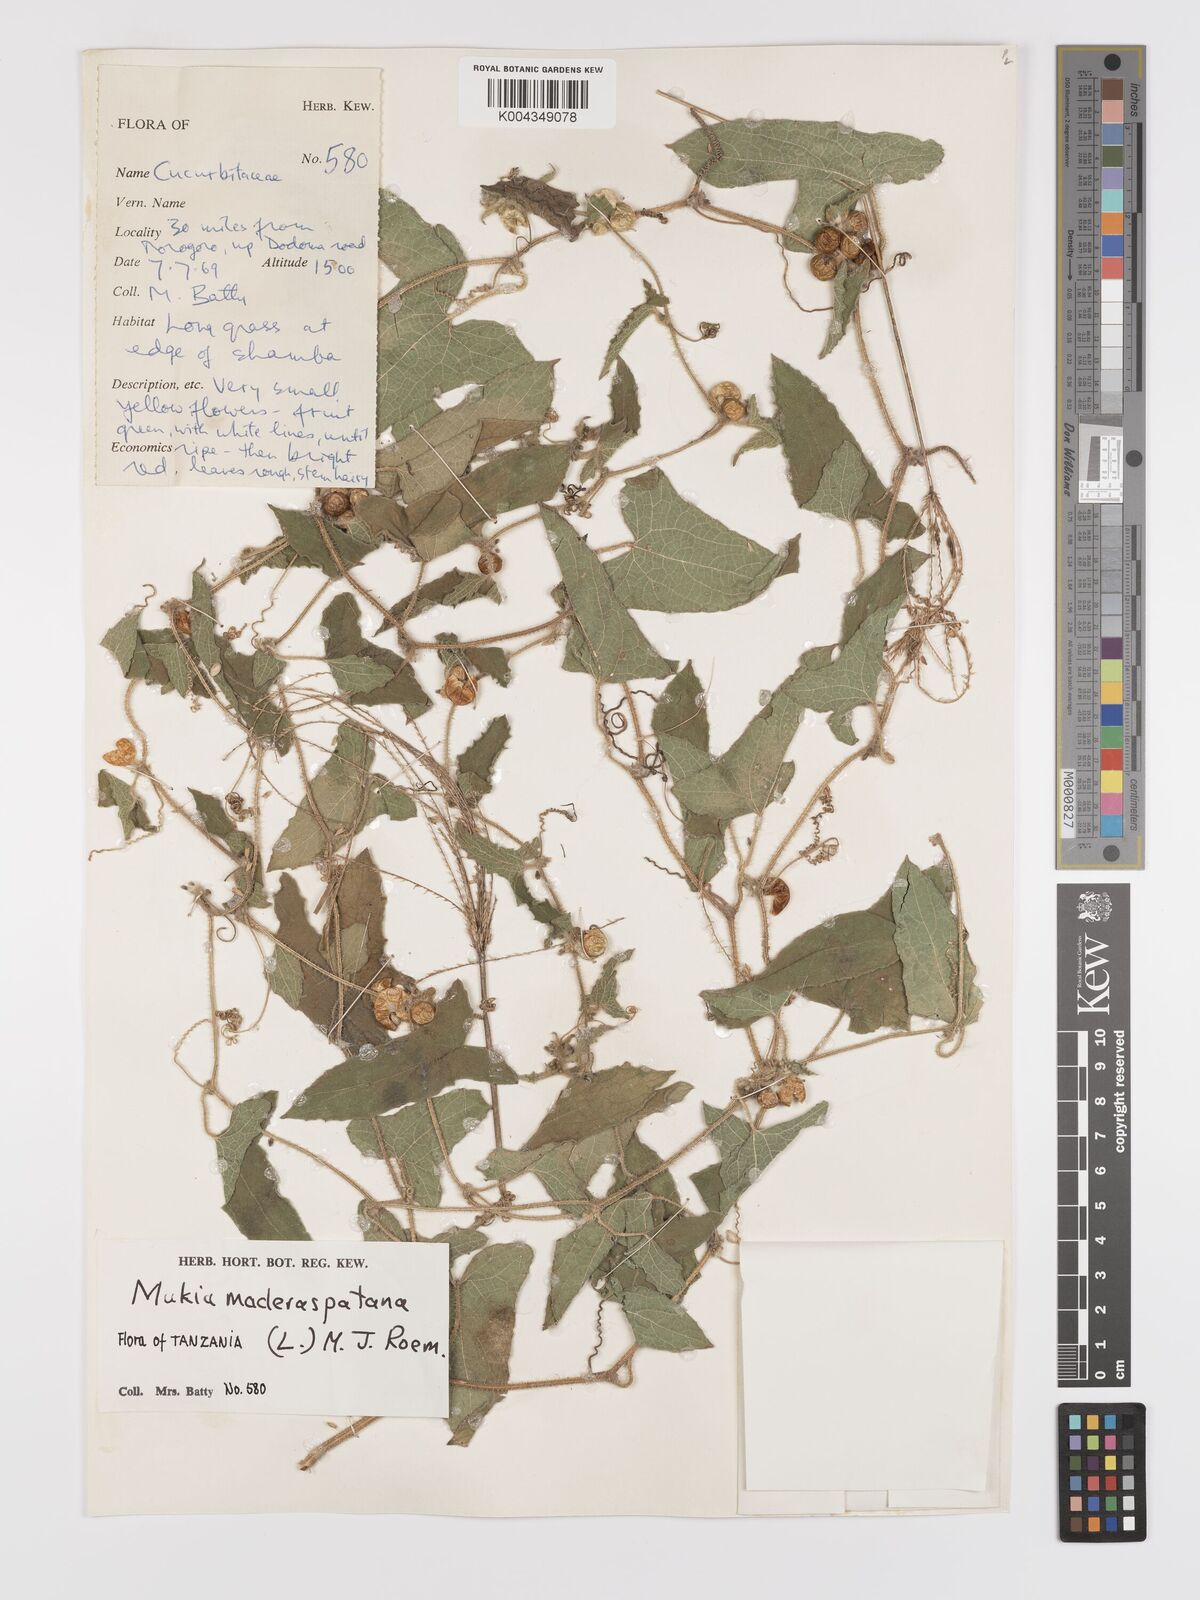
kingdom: Plantae
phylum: Tracheophyta
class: Magnoliopsida
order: Cucurbitales
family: Cucurbitaceae
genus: Cucumis
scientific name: Cucumis maderaspatanus
